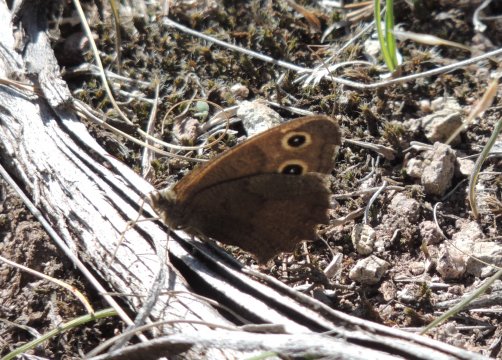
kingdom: Animalia
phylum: Arthropoda
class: Insecta
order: Lepidoptera
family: Nymphalidae
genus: Cercyonis
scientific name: Cercyonis pegala
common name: Common Wood-Nymph
